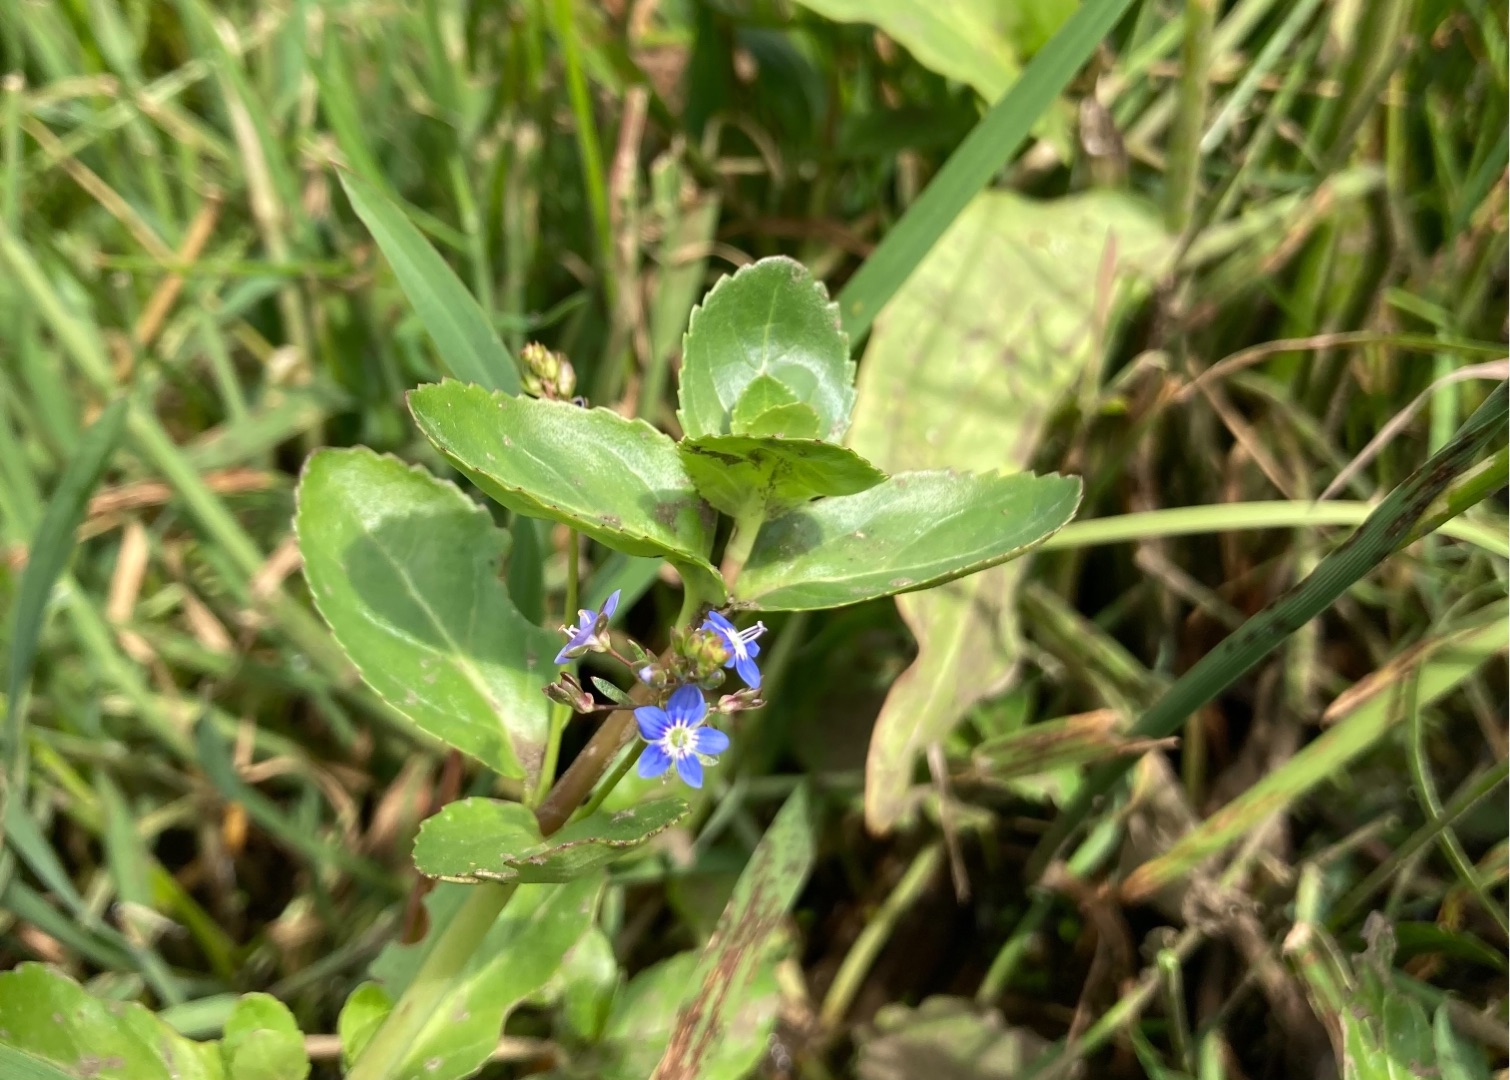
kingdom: Plantae
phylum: Tracheophyta
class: Magnoliopsida
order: Lamiales
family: Plantaginaceae
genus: Veronica
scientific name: Veronica beccabunga
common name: Tykbladet ærenpris
